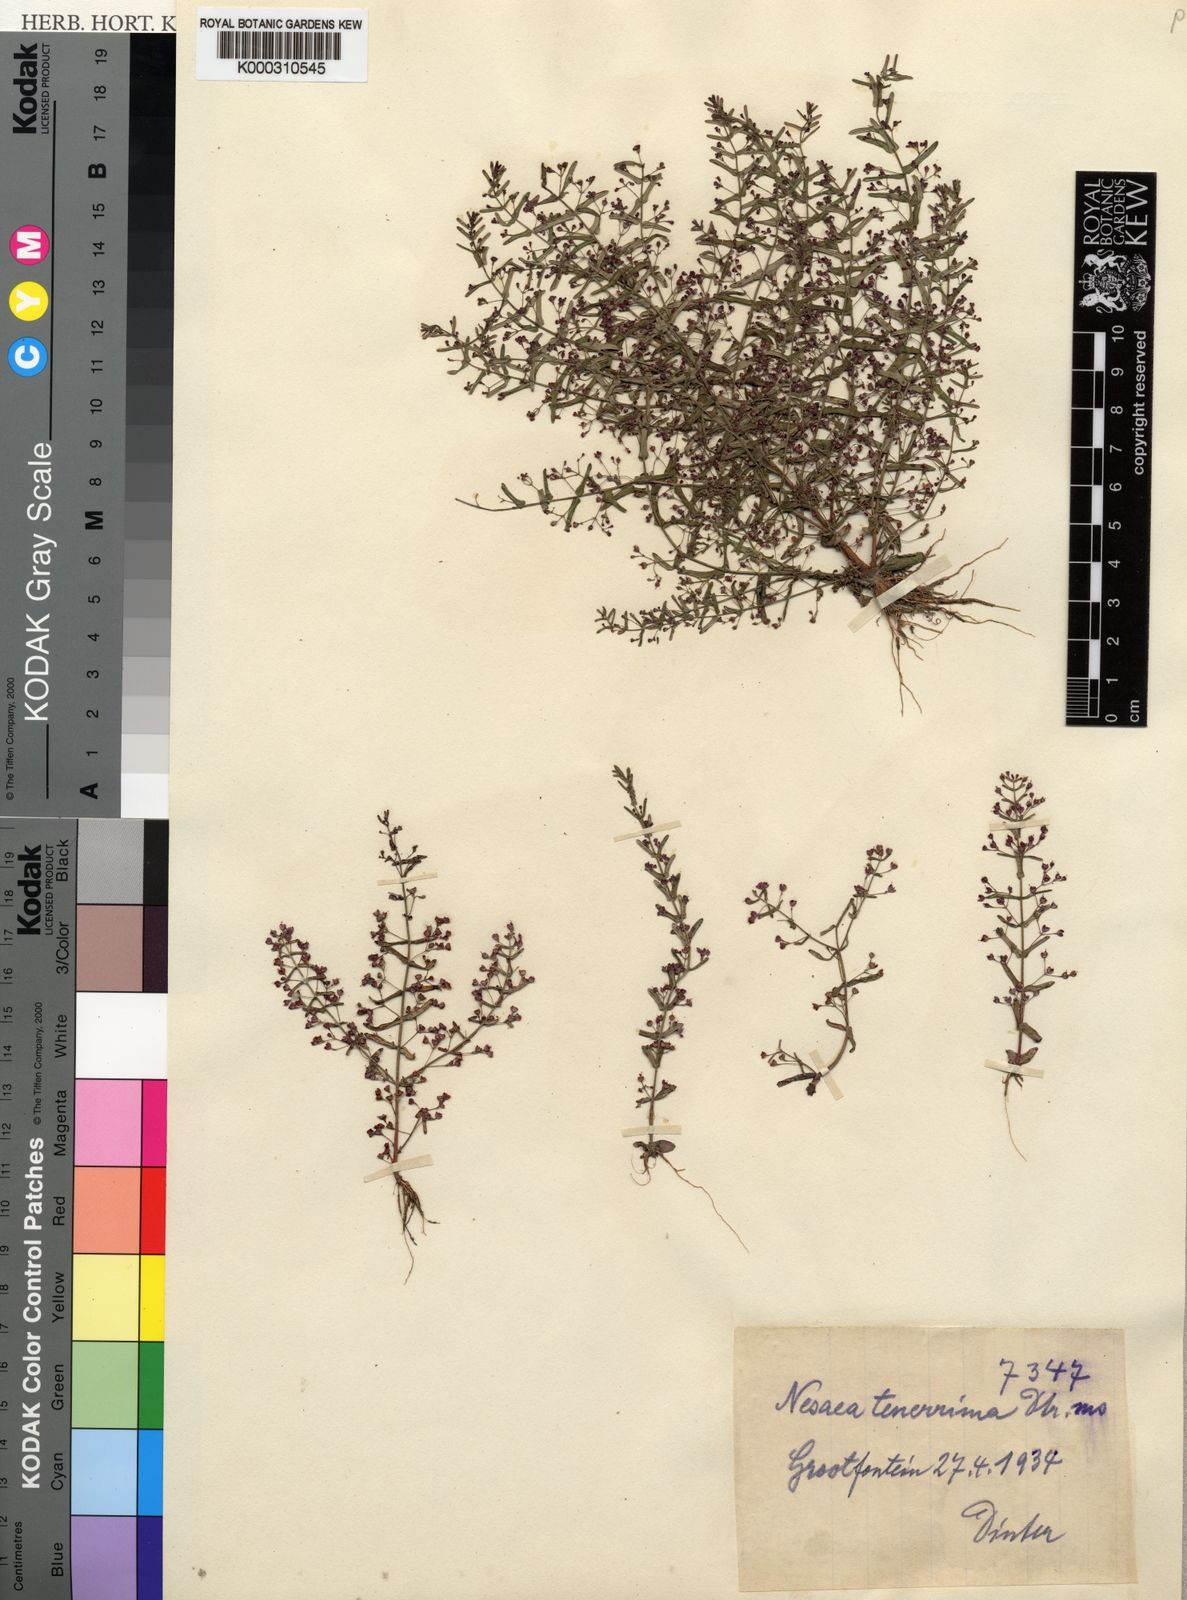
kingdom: Plantae
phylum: Tracheophyta
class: Magnoliopsida
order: Myrtales
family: Lythraceae
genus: Nesaea
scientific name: Nesaea
